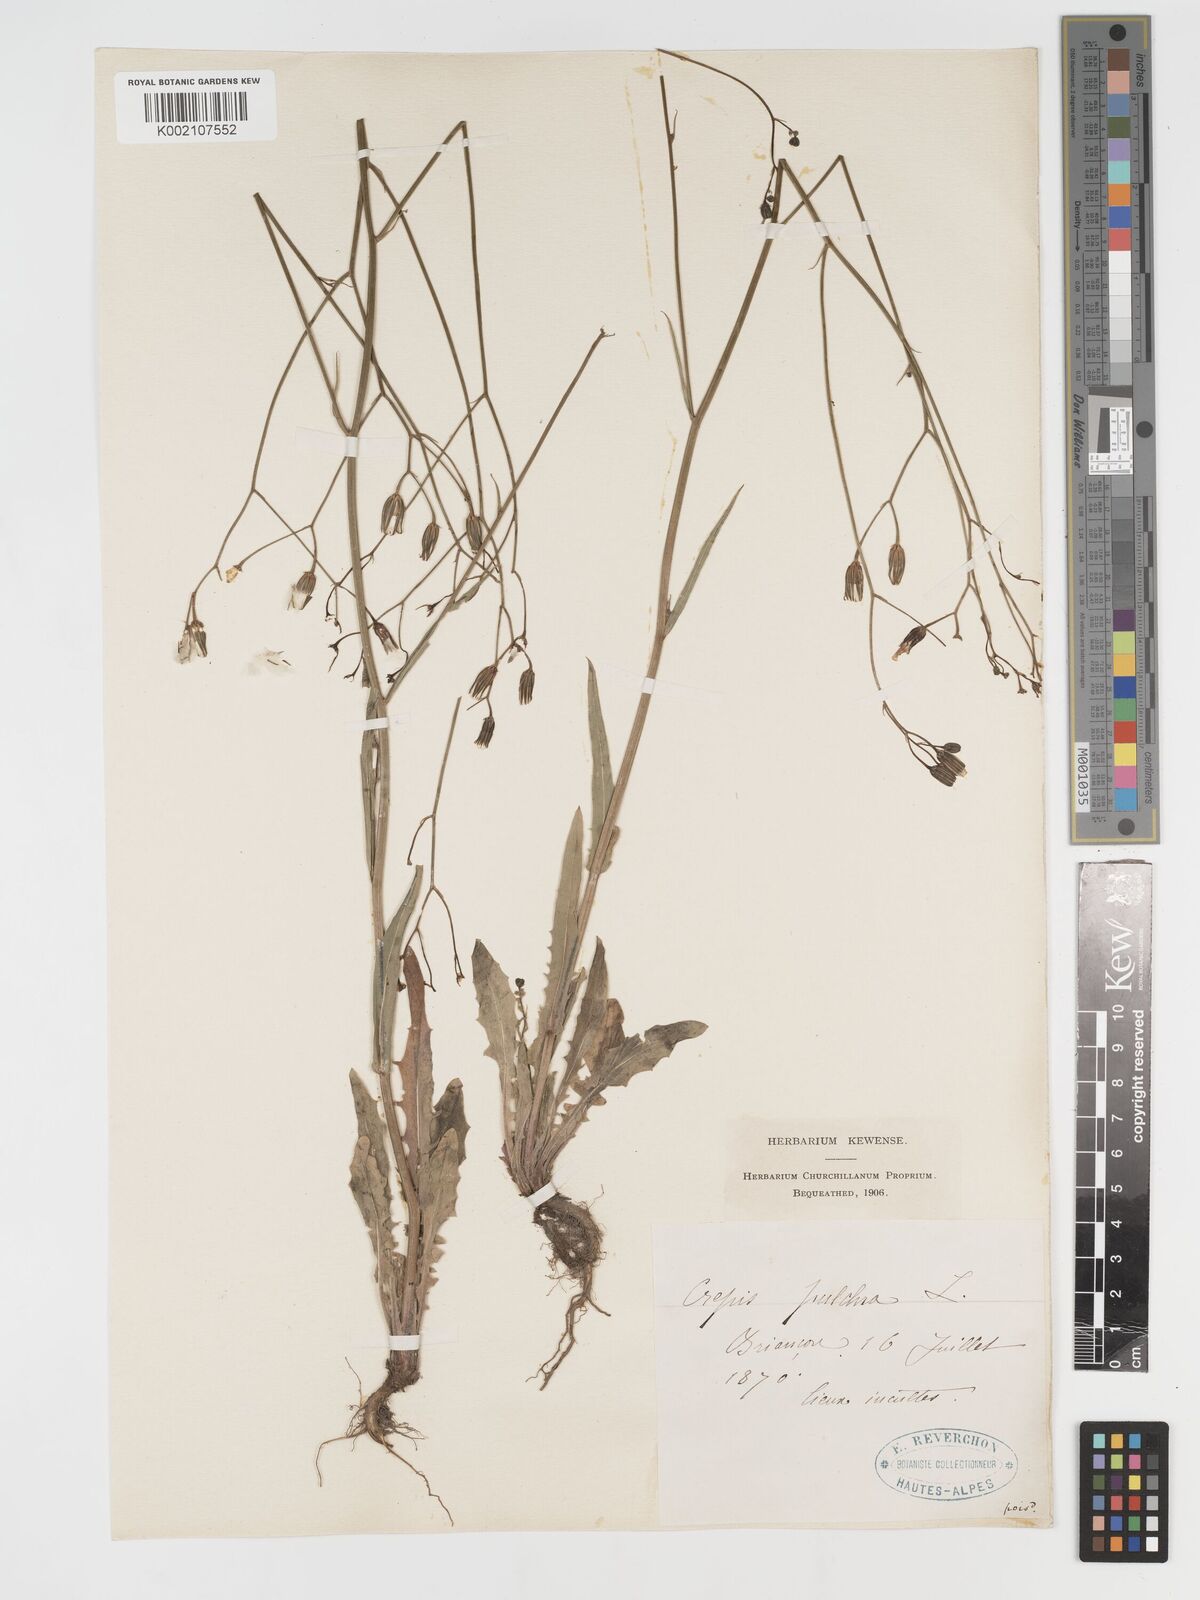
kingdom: Plantae
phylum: Tracheophyta
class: Magnoliopsida
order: Asterales
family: Asteraceae
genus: Crepis
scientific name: Crepis pulchra
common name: Hawk's-beard
